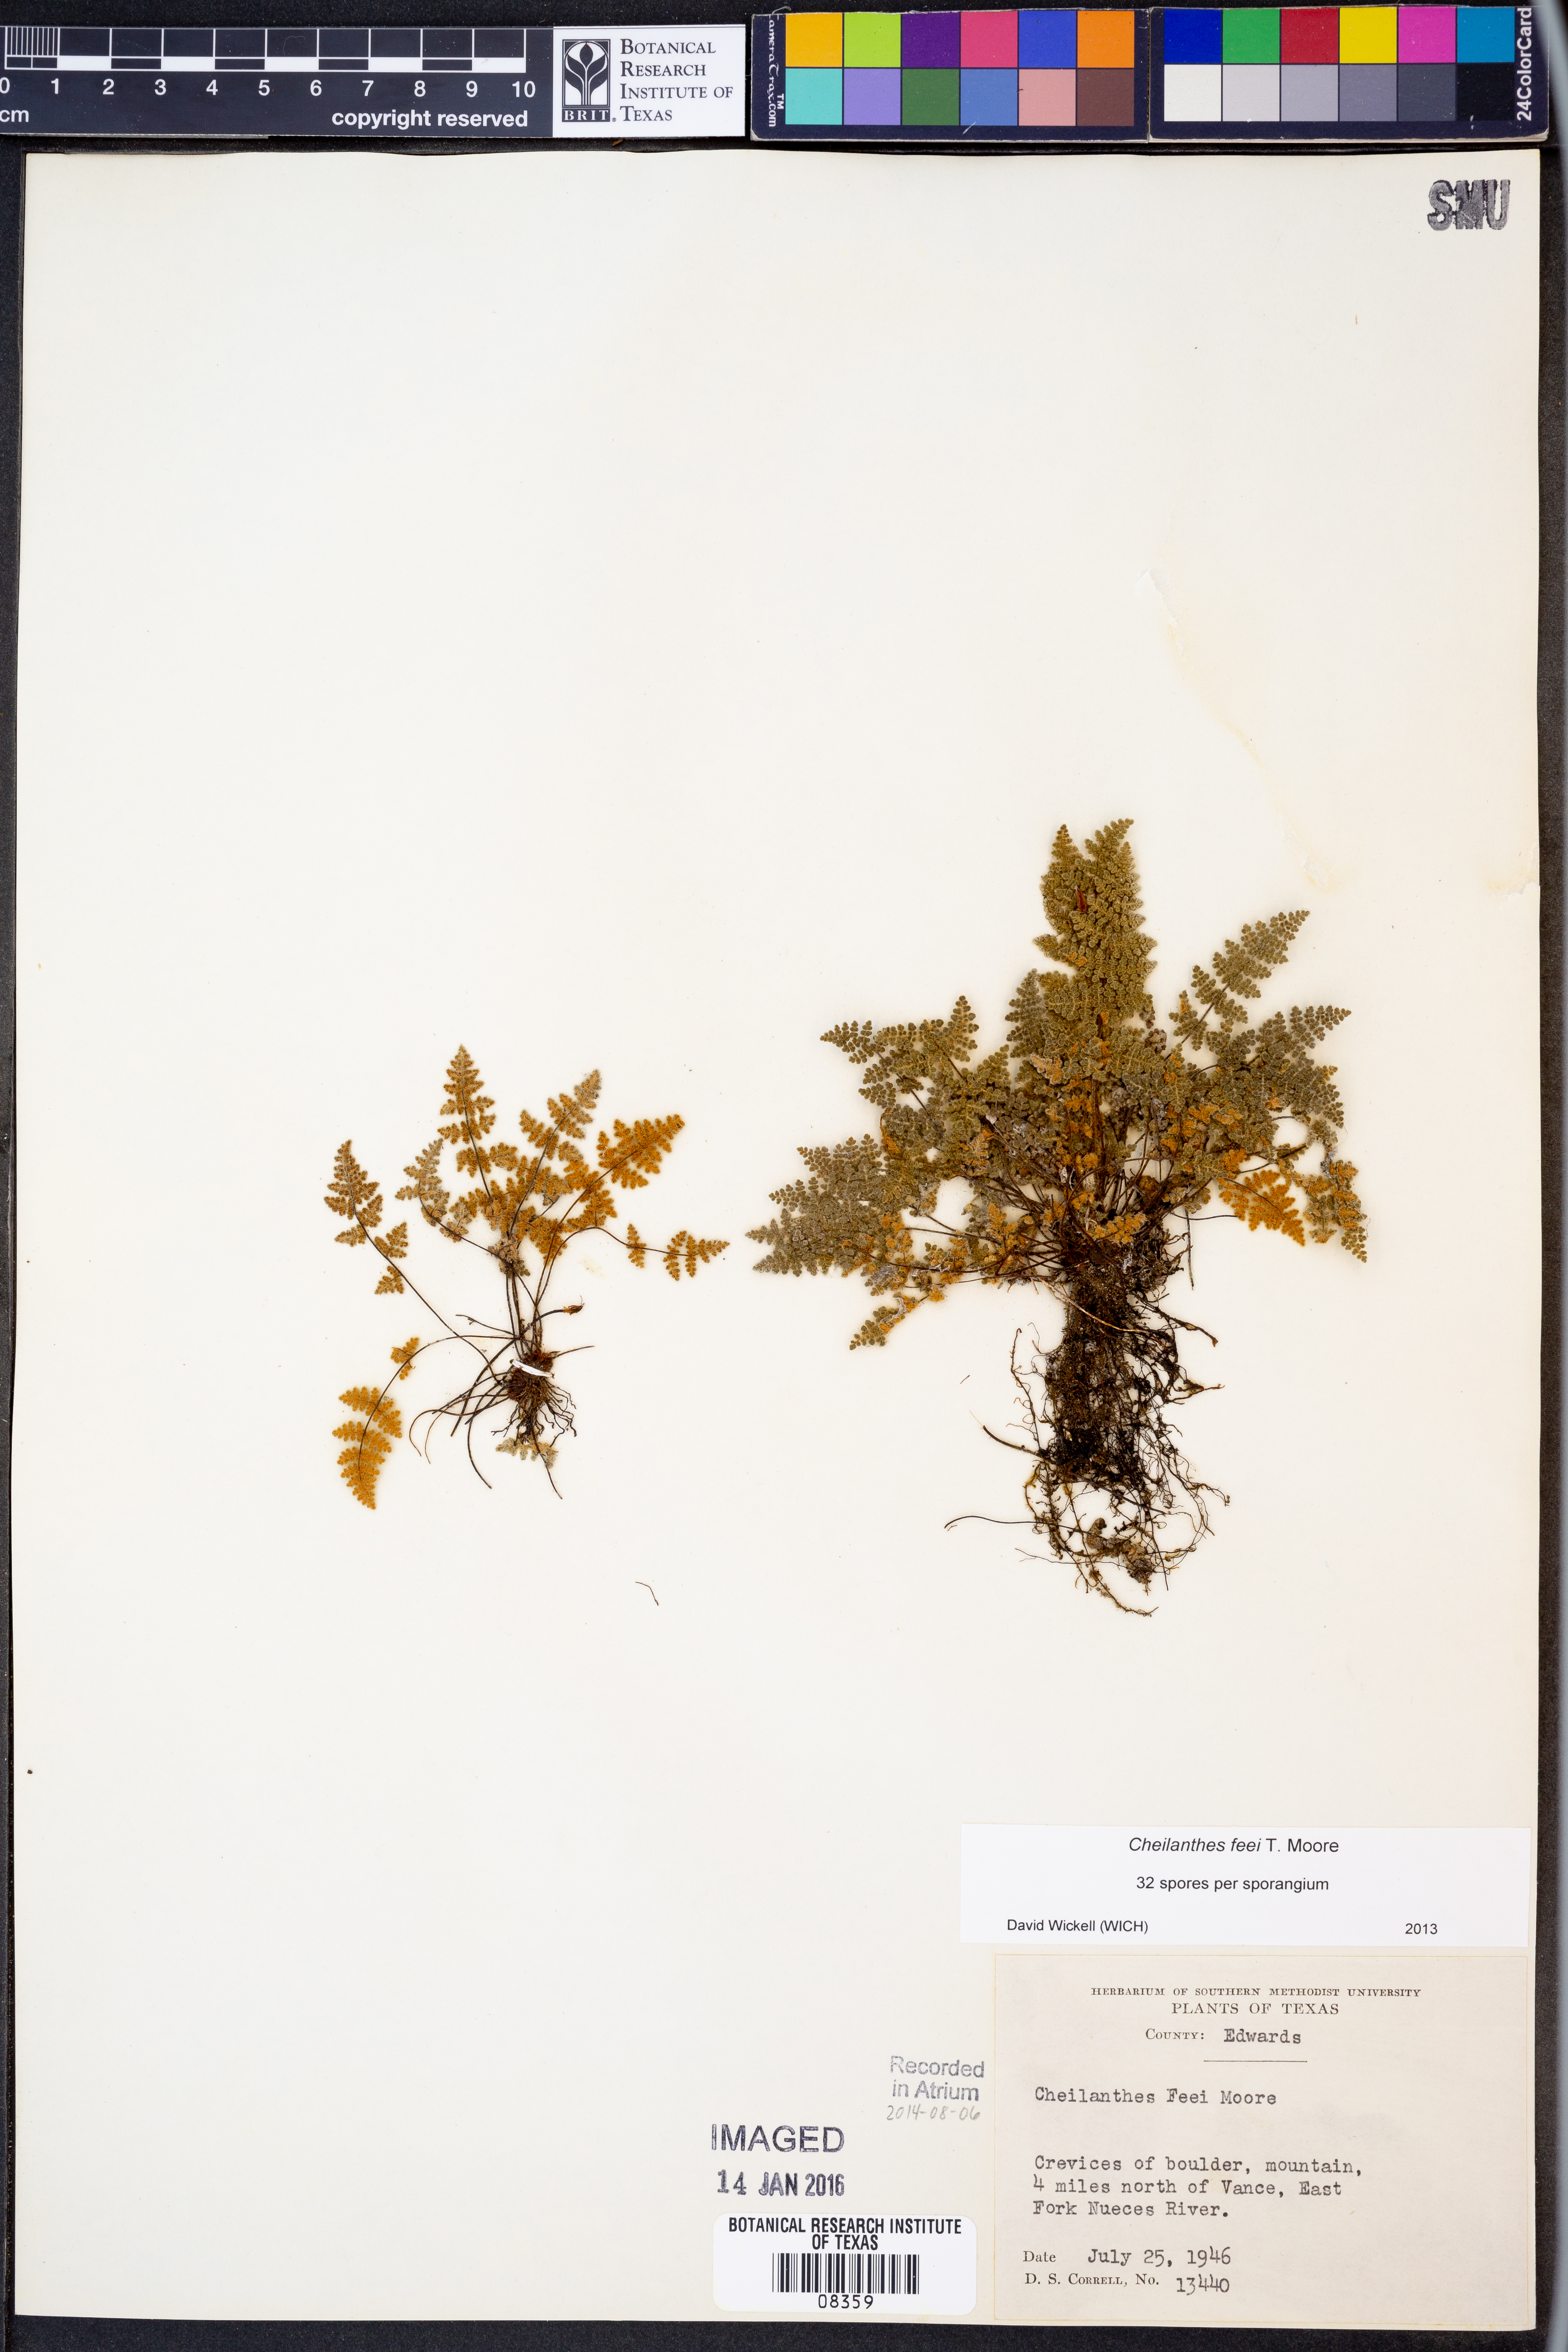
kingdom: Plantae
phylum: Tracheophyta
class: Polypodiopsida
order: Polypodiales
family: Pteridaceae
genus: Myriopteris
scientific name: Myriopteris gracilis
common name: Fee's lip fern
